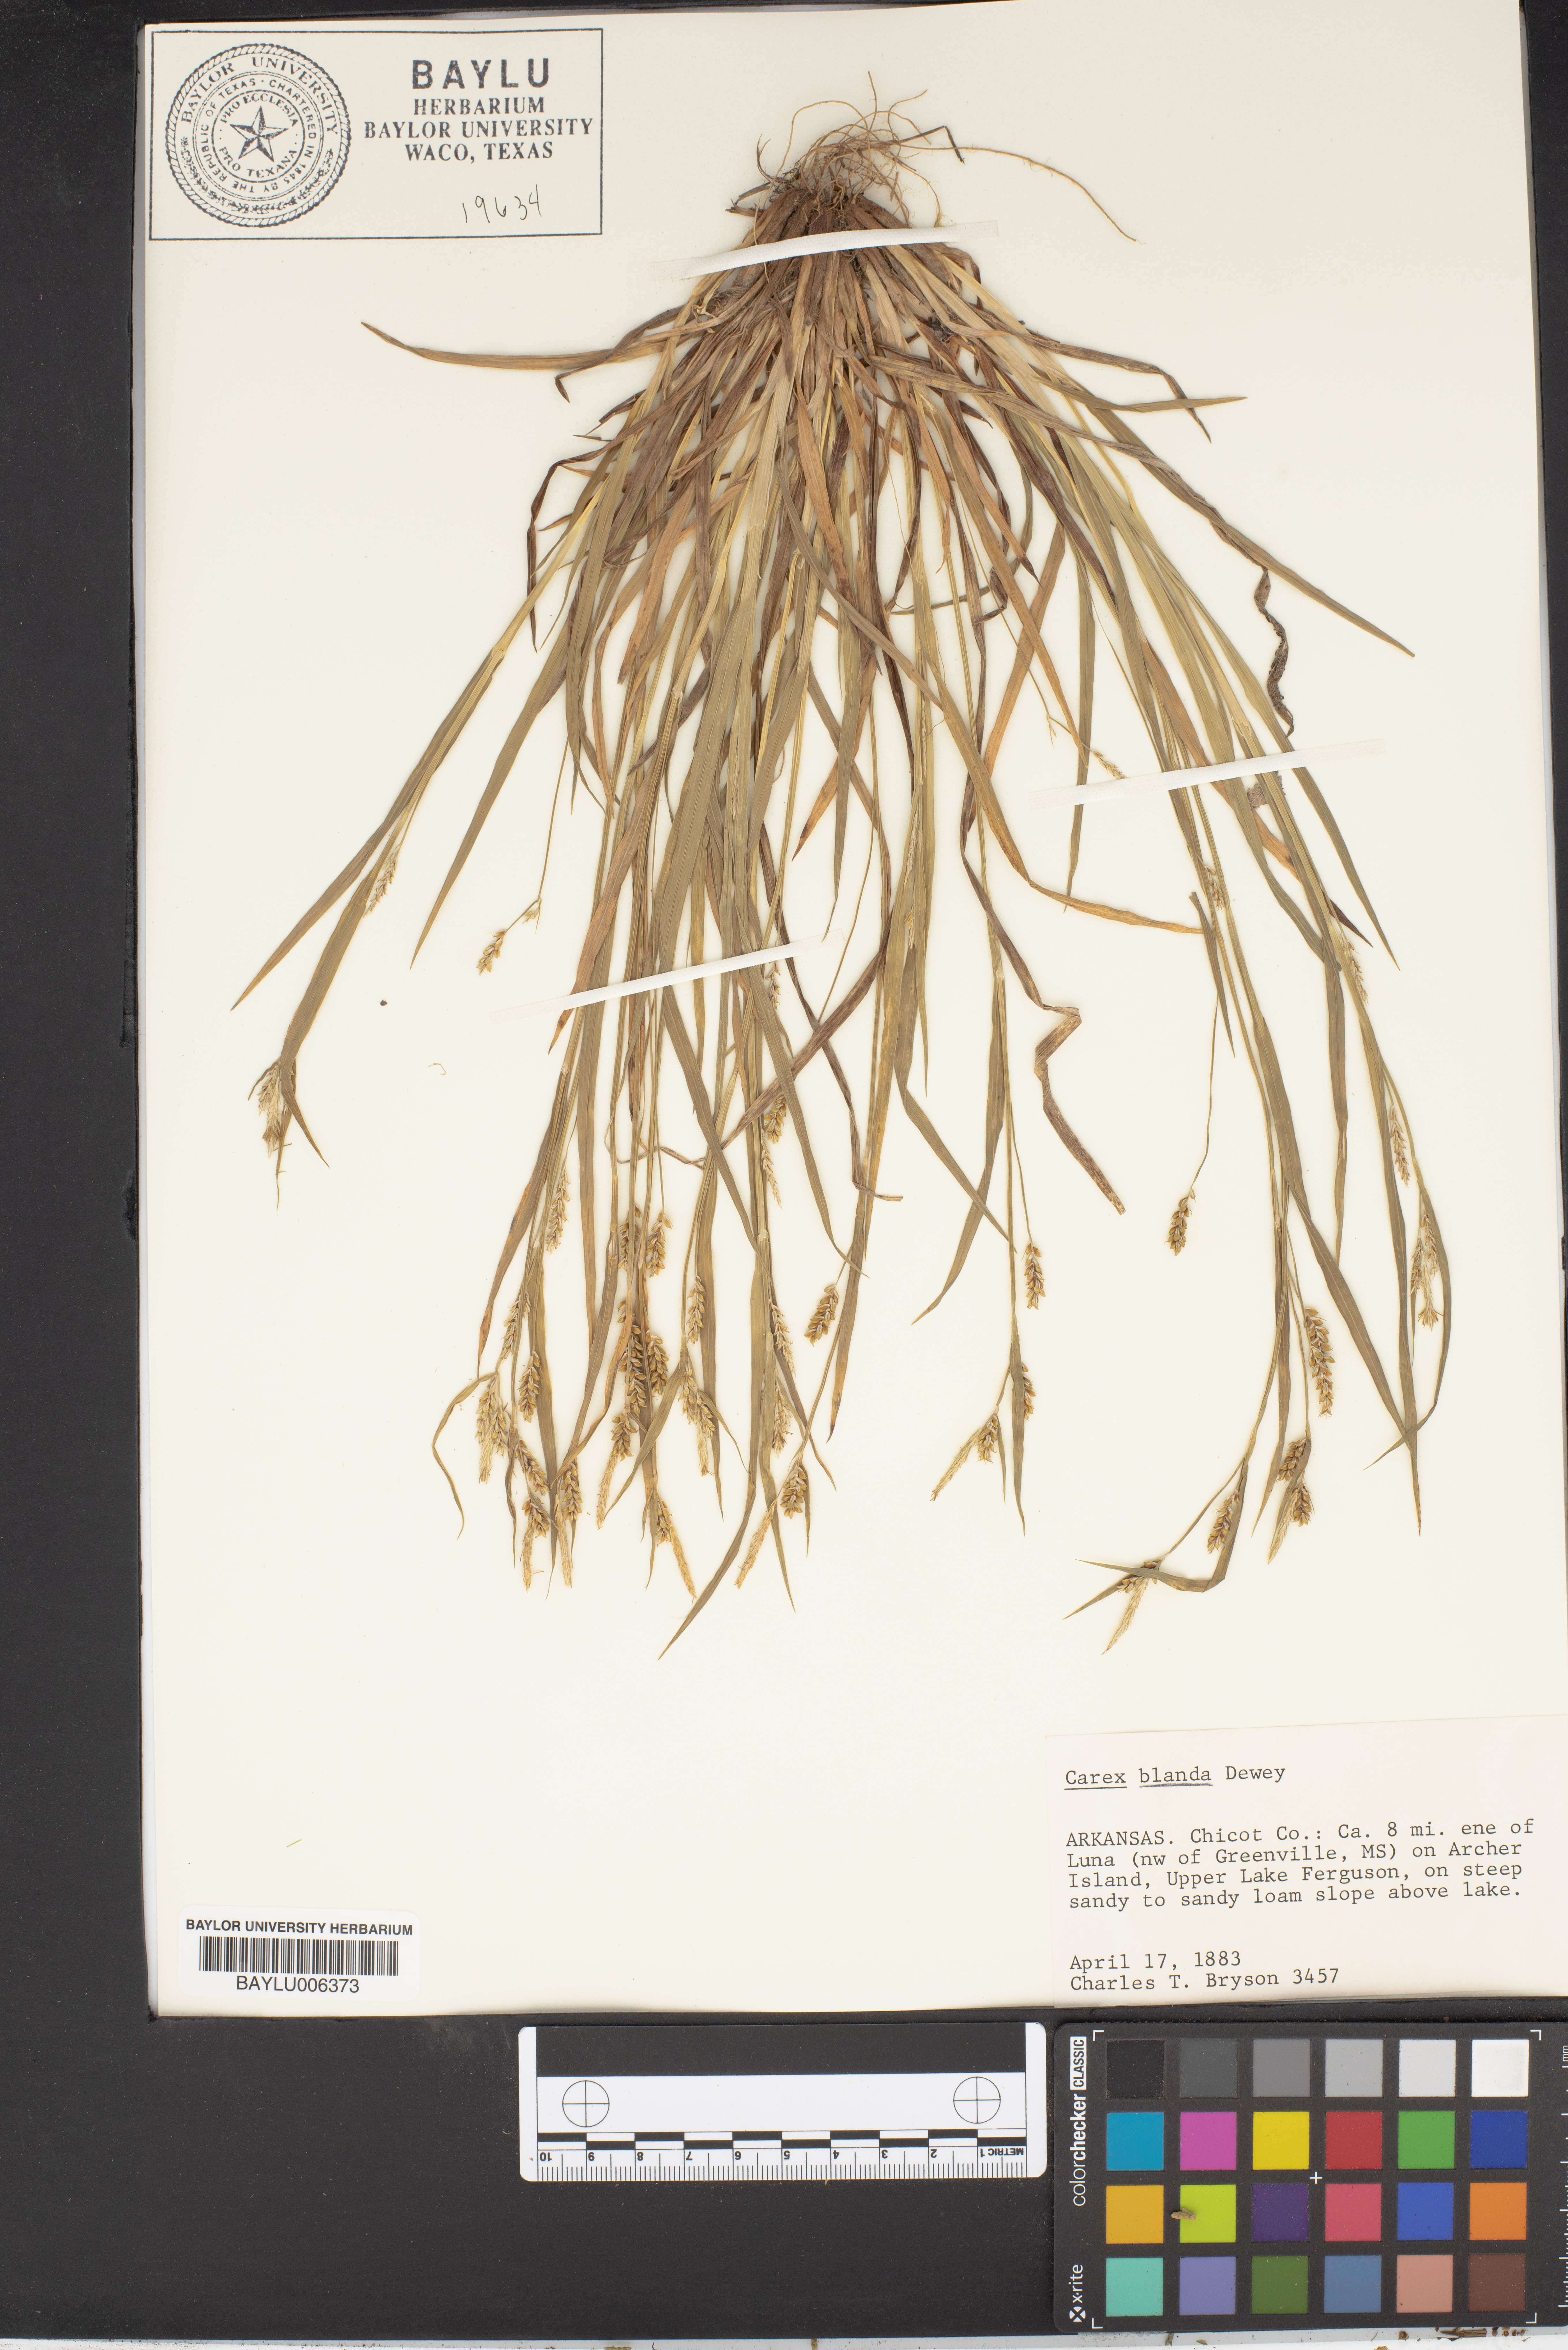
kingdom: Plantae
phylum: Tracheophyta
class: Liliopsida
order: Poales
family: Cyperaceae
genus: Carex
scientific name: Carex blanda
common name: Bland sedge
